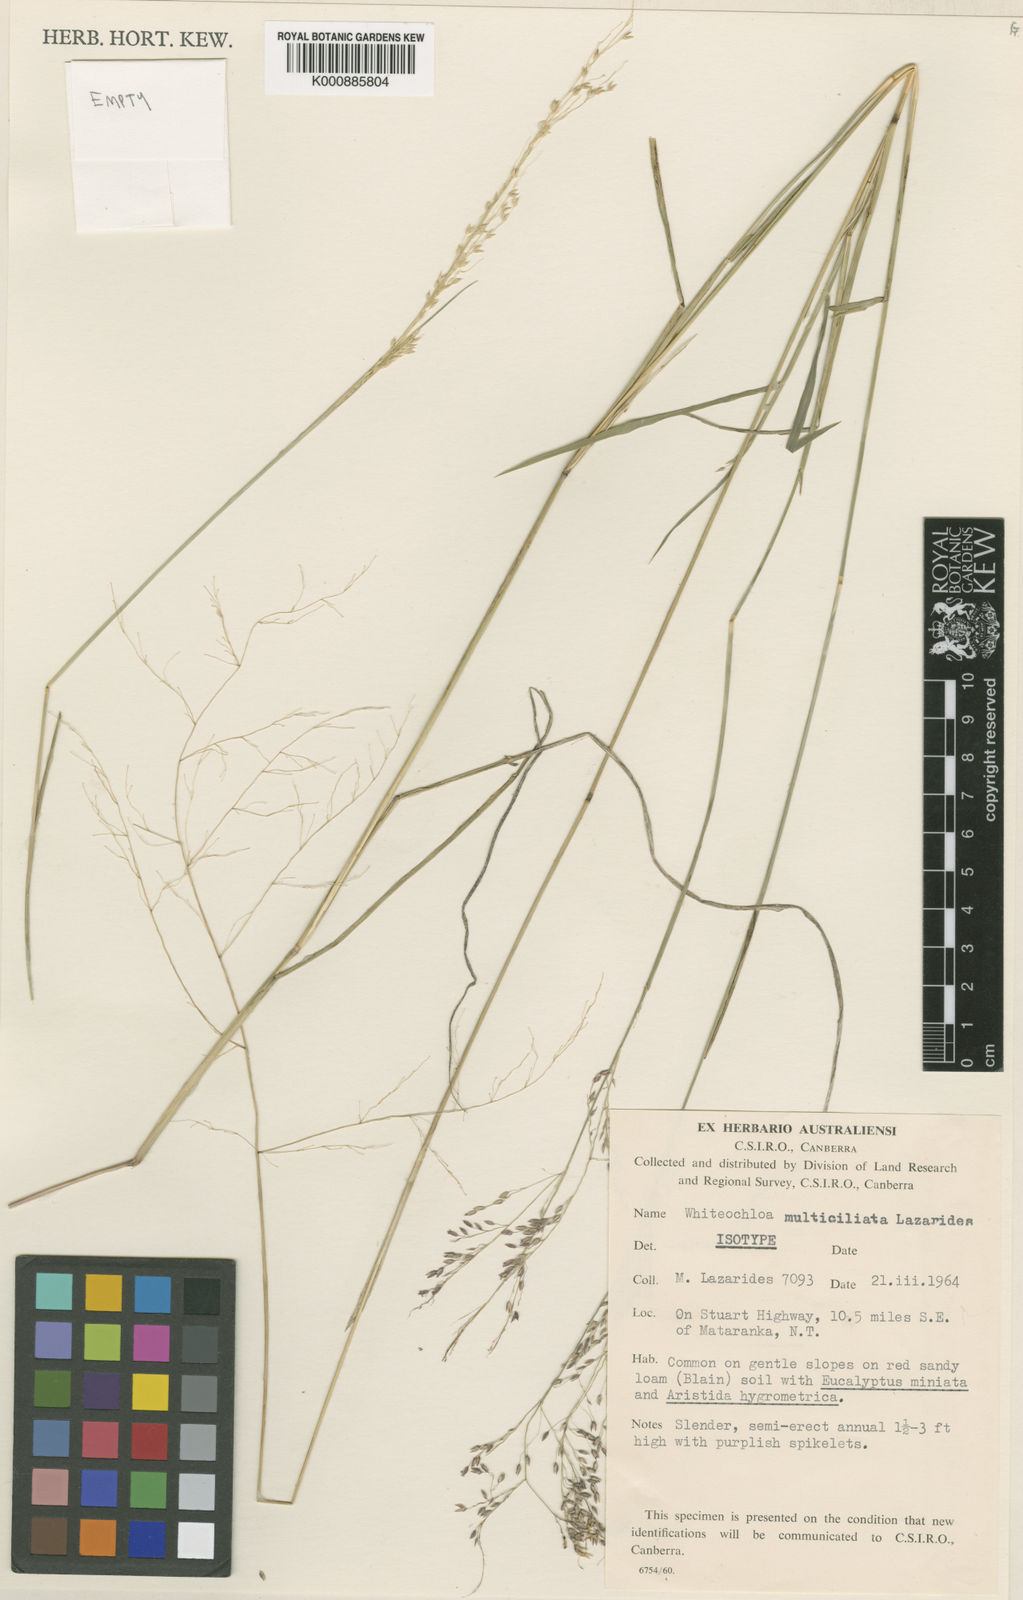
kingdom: Plantae
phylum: Tracheophyta
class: Liliopsida
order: Poales
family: Poaceae
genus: Whiteochloa
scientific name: Whiteochloa multiciliata
